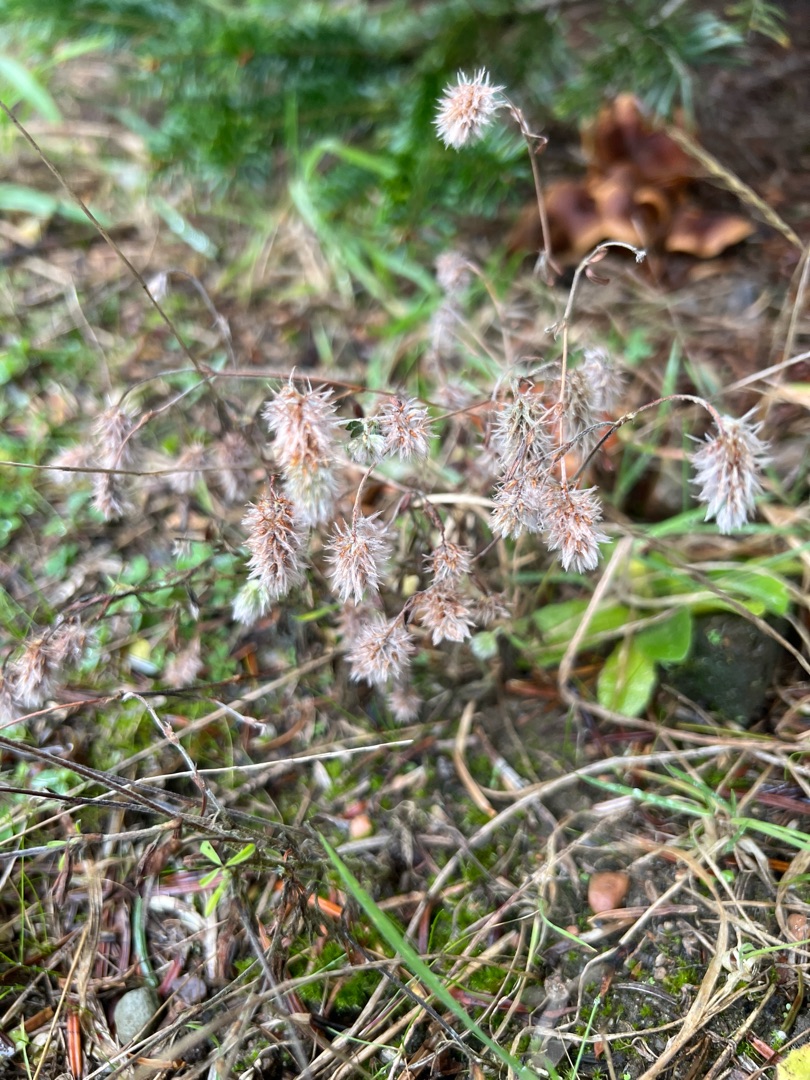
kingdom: Plantae
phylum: Tracheophyta
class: Magnoliopsida
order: Fabales
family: Fabaceae
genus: Trifolium
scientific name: Trifolium arvense
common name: Hare-kløver
